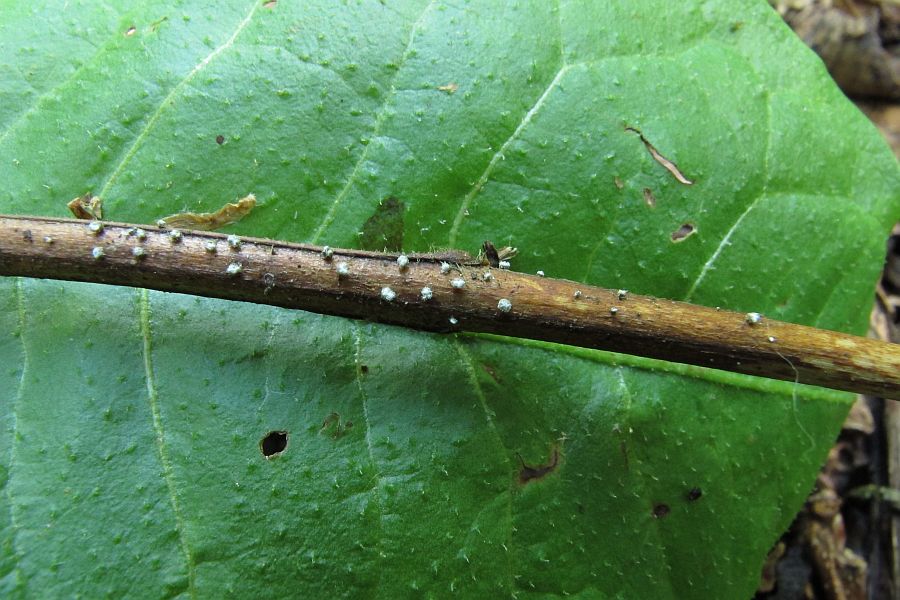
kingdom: Fungi
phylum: Basidiomycota
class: Agaricomycetes
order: Agaricales
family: Niaceae
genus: Lachnella
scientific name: Lachnella alboviolascens
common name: grå frynserede
